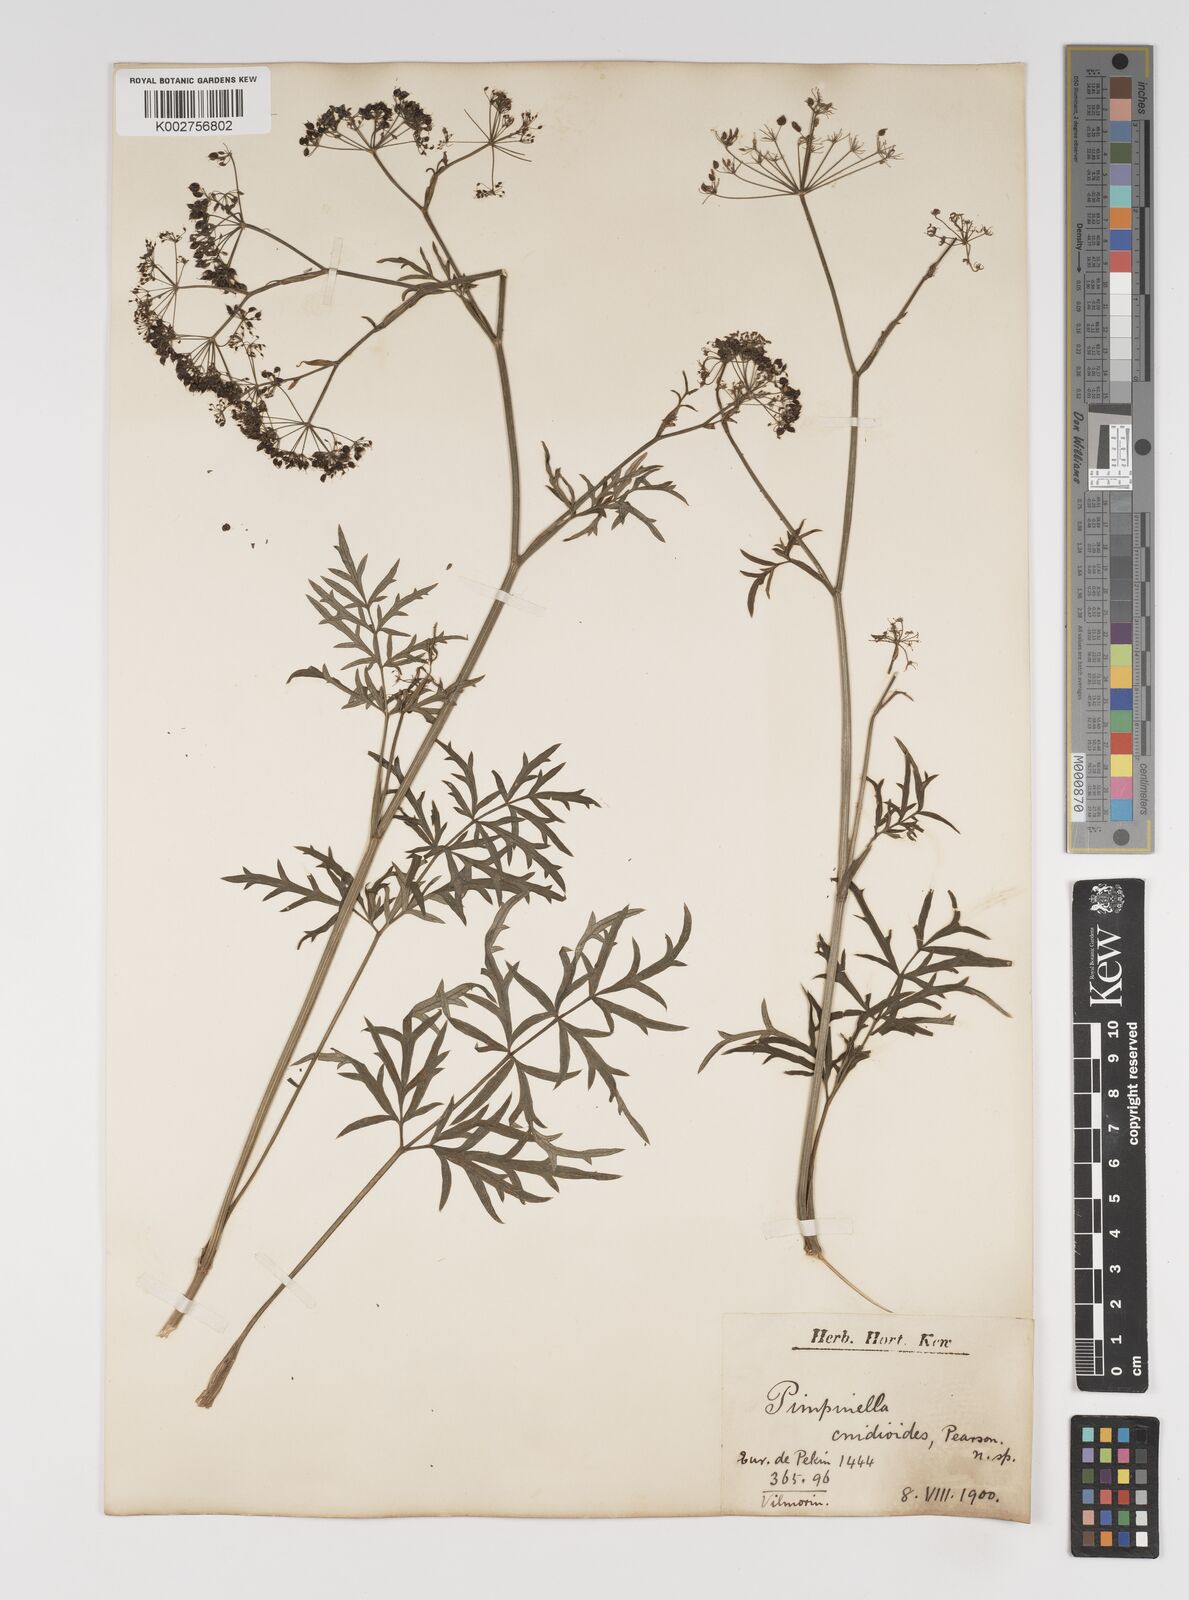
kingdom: Plantae
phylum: Tracheophyta
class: Magnoliopsida
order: Apiales
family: Apiaceae
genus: Pimpinella
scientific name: Pimpinella major
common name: Greater burnet-saxifrage
